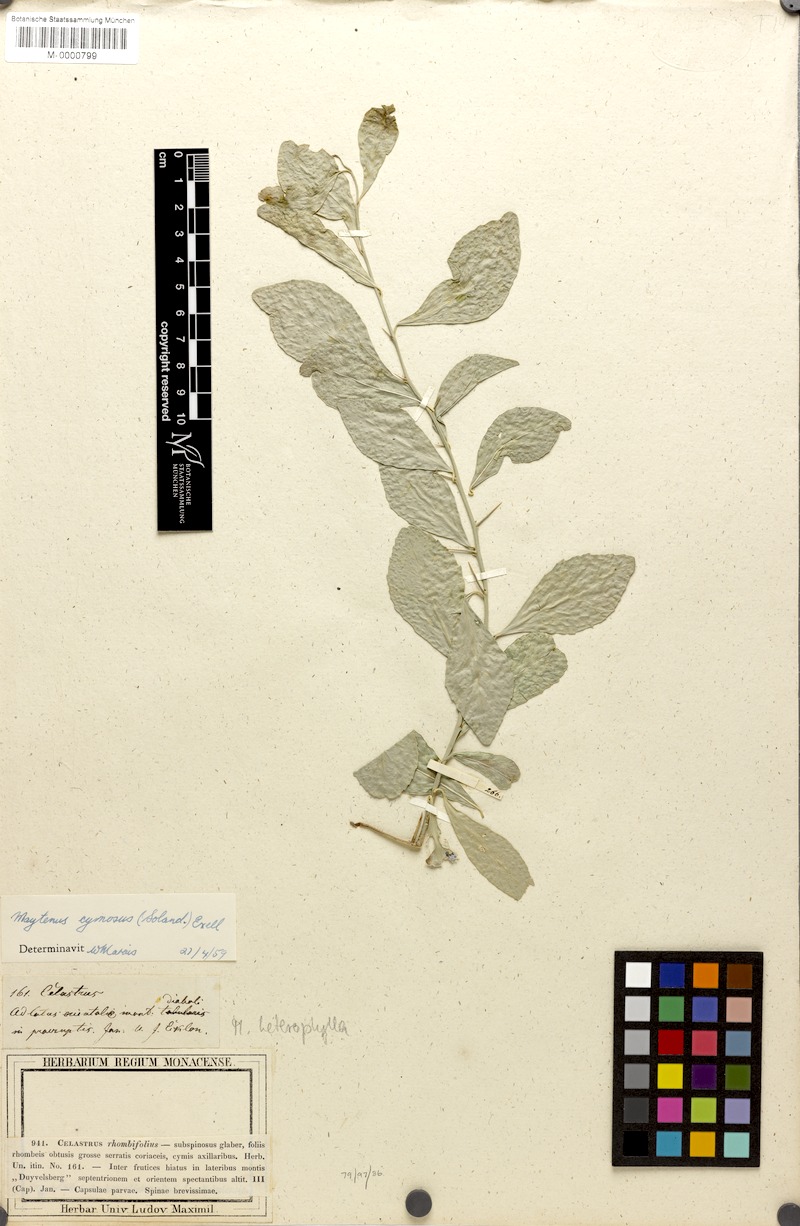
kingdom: Plantae
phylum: Tracheophyta
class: Magnoliopsida
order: Celastrales
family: Celastraceae
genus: Gymnosporia
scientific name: Gymnosporia buxifolia
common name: Common spike-thorn
